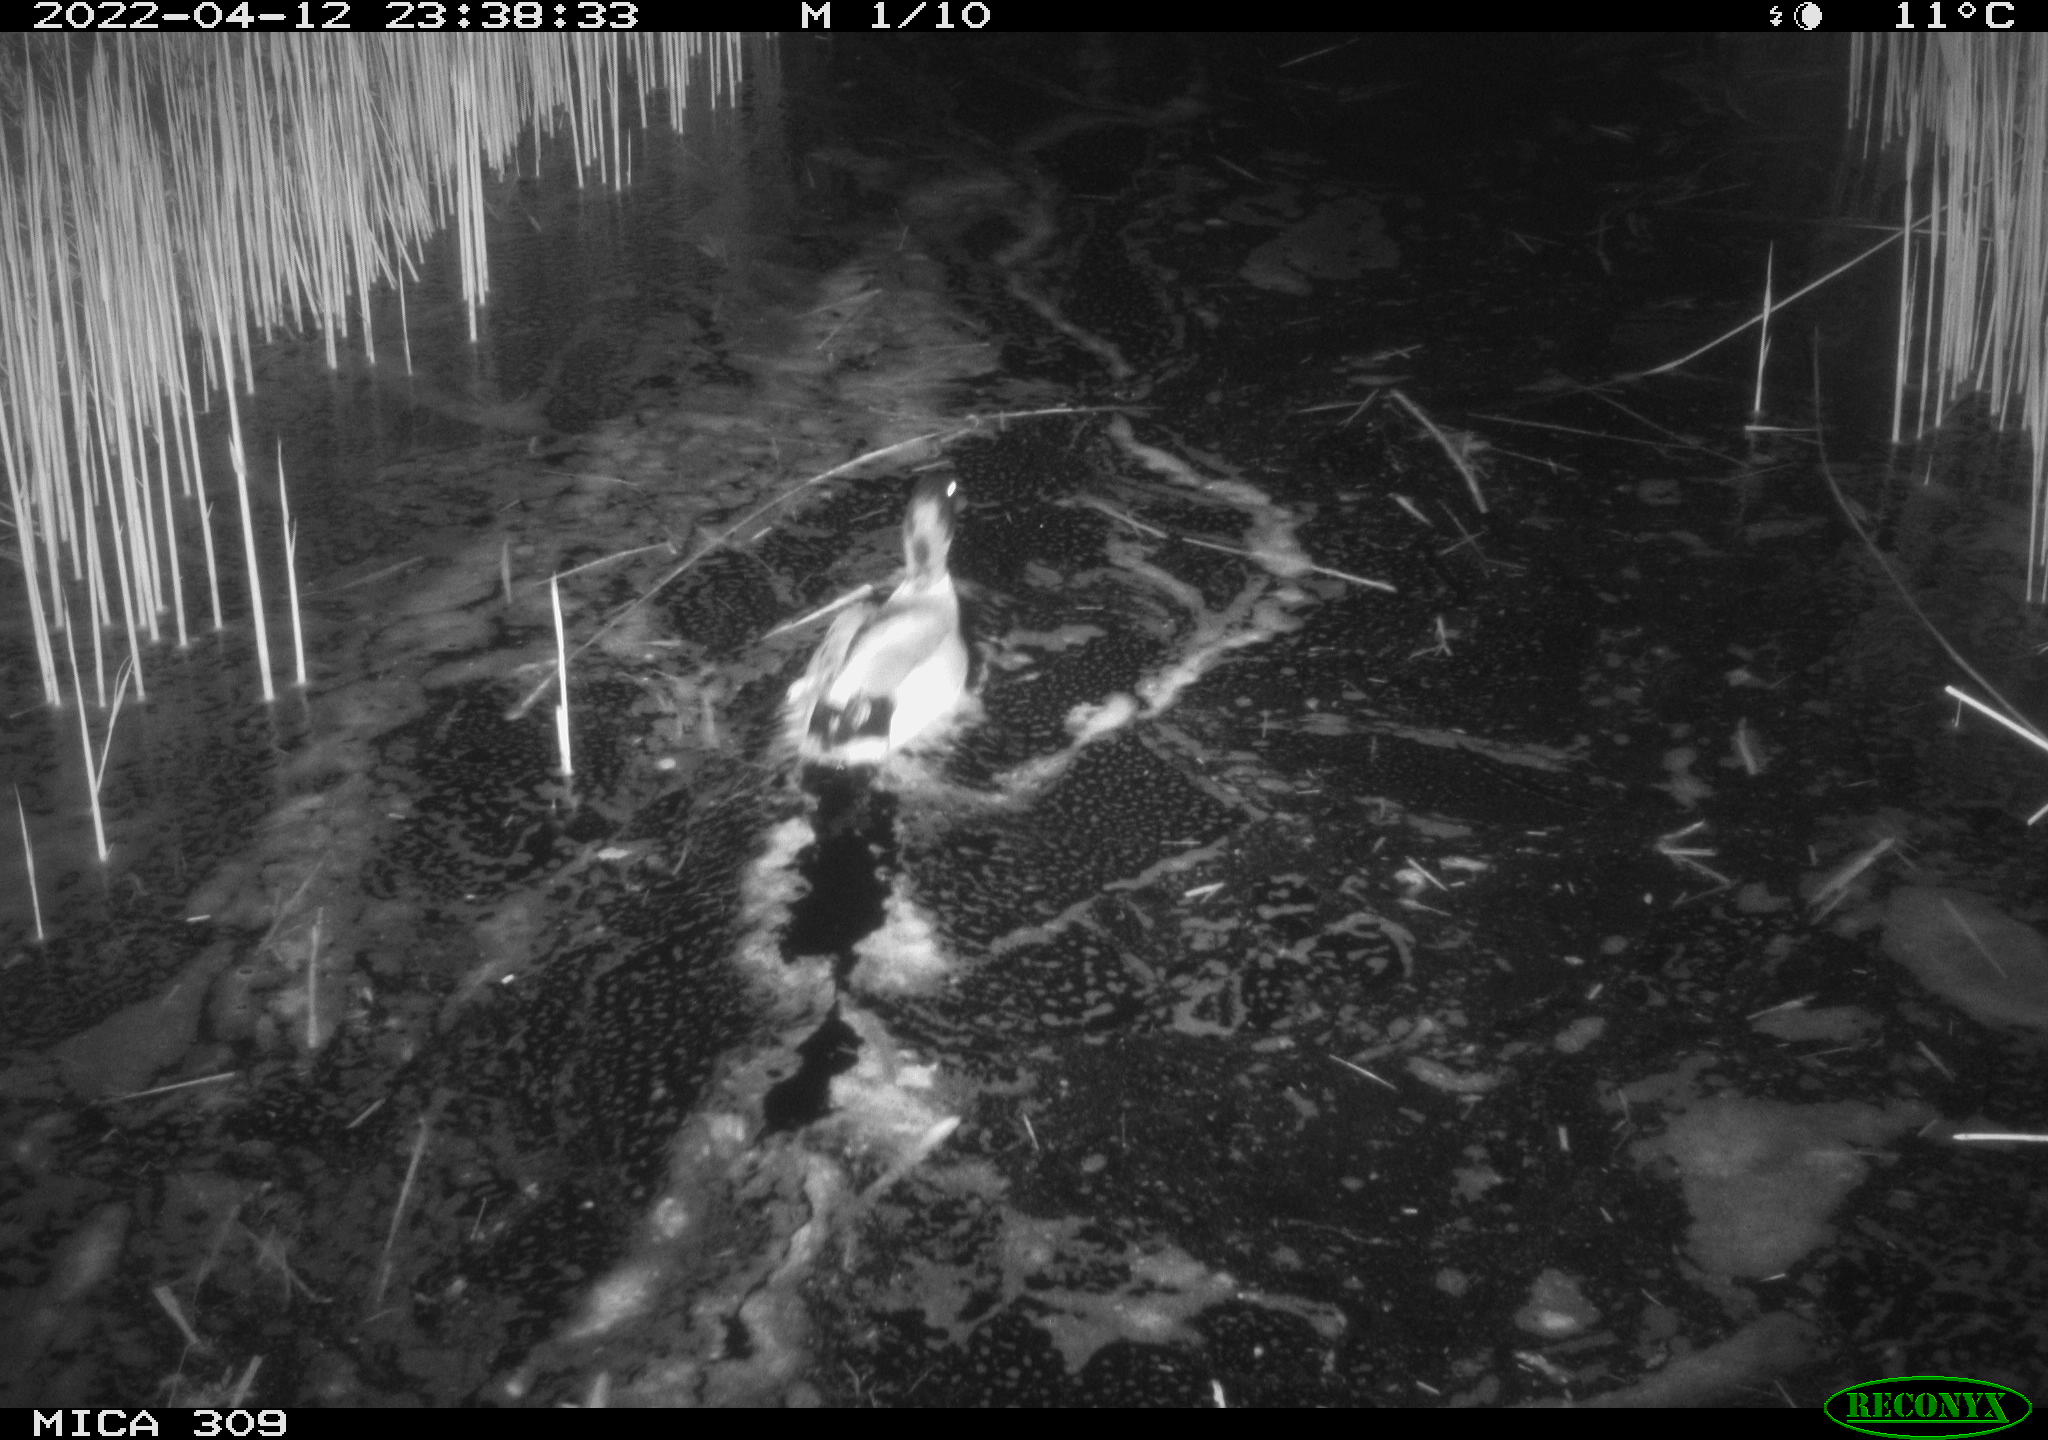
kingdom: Animalia
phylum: Chordata
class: Aves
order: Anseriformes
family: Anatidae
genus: Anas
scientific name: Anas platyrhynchos
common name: Mallard
